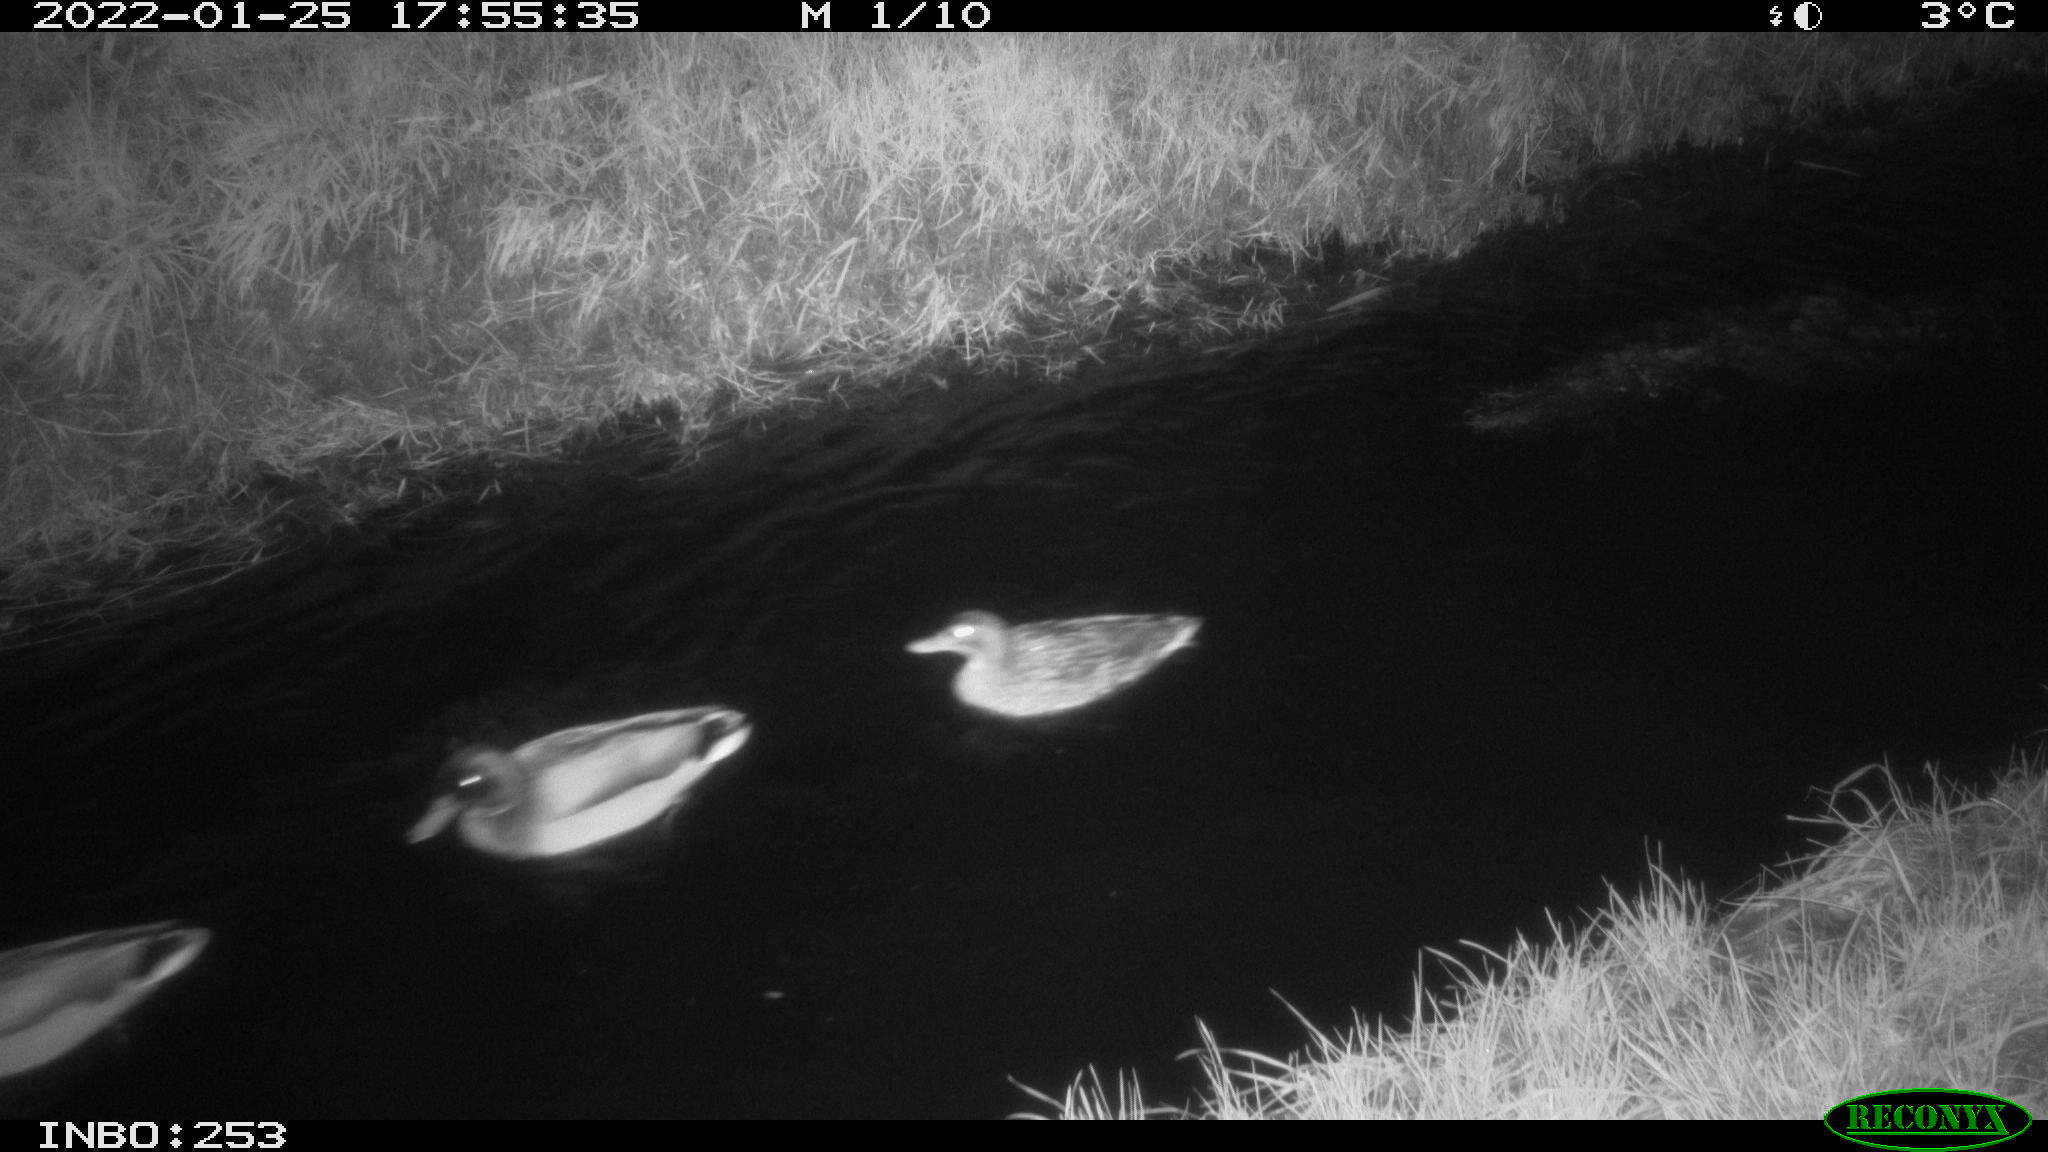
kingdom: Animalia
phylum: Chordata
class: Aves
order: Anseriformes
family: Anatidae
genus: Anas
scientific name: Anas
